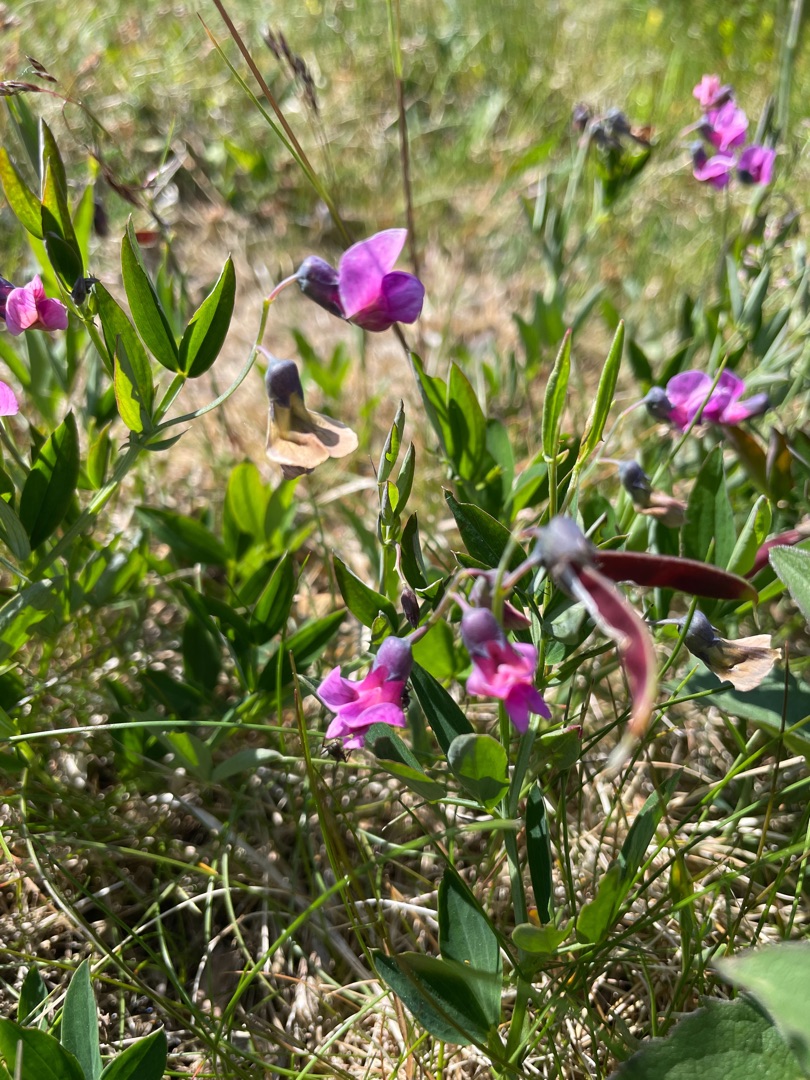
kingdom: Plantae
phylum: Tracheophyta
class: Magnoliopsida
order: Fabales
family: Fabaceae
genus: Lathyrus
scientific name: Lathyrus linifolius
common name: Krat-fladbælg
